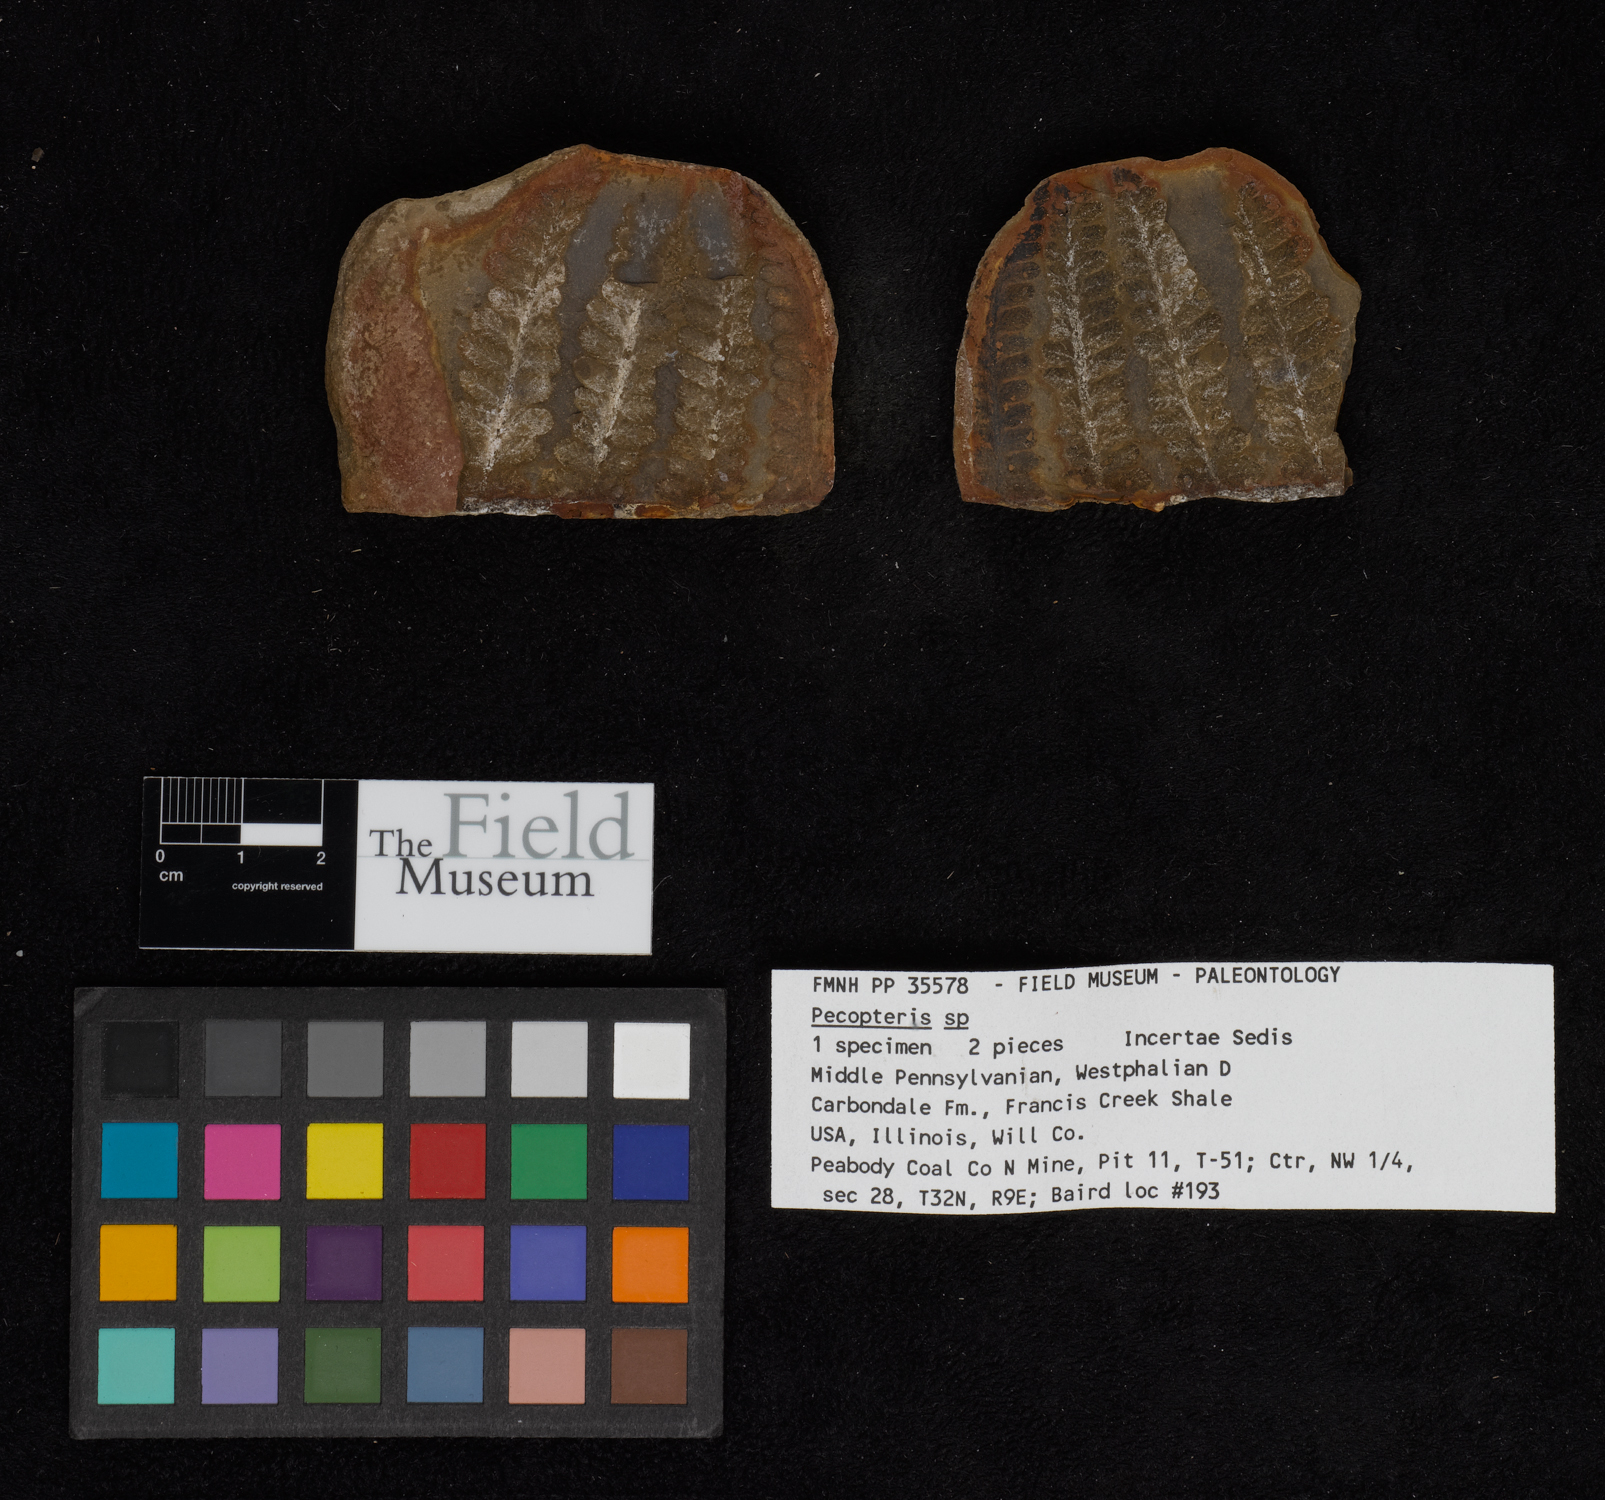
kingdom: Plantae
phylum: Tracheophyta
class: Polypodiopsida
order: Marattiales
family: Asterothecaceae
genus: Pecopteris
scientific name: Pecopteris
